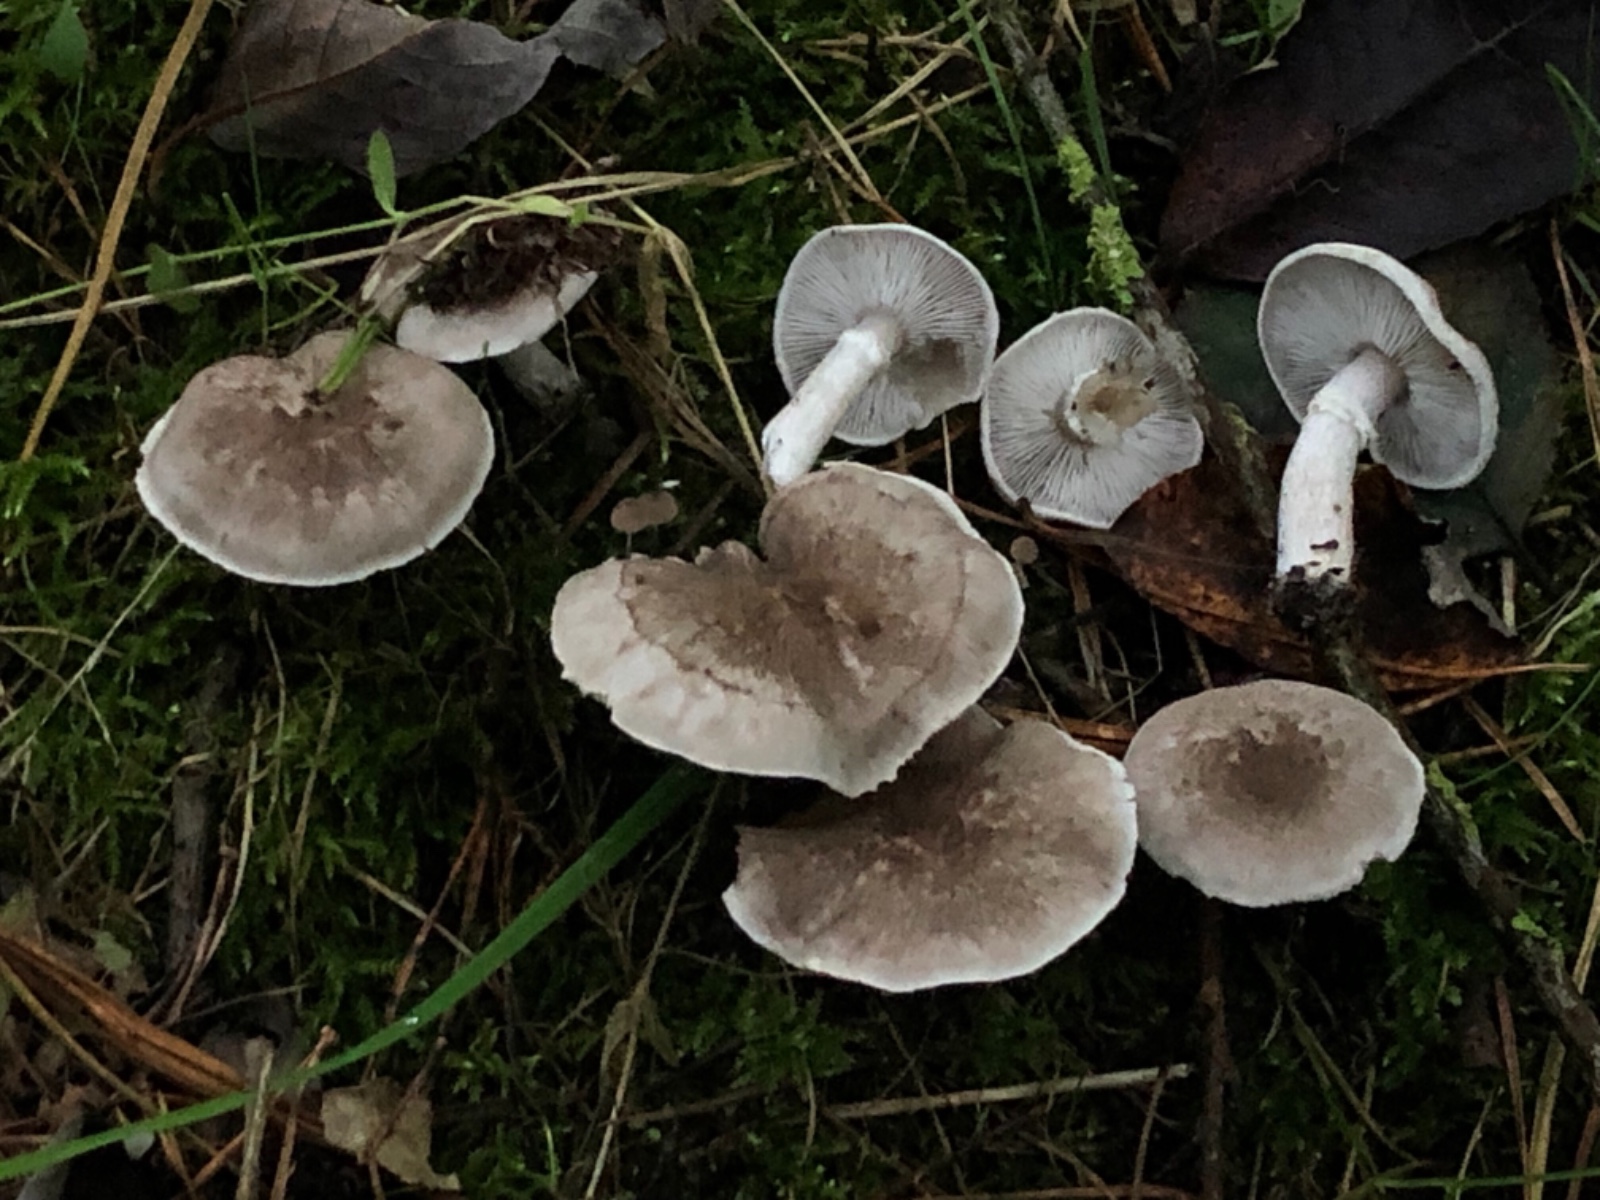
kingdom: Fungi
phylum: Basidiomycota
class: Agaricomycetes
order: Agaricales
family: Tricholomataceae
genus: Tricholoma
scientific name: Tricholoma cingulatum
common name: ring-ridderhat
